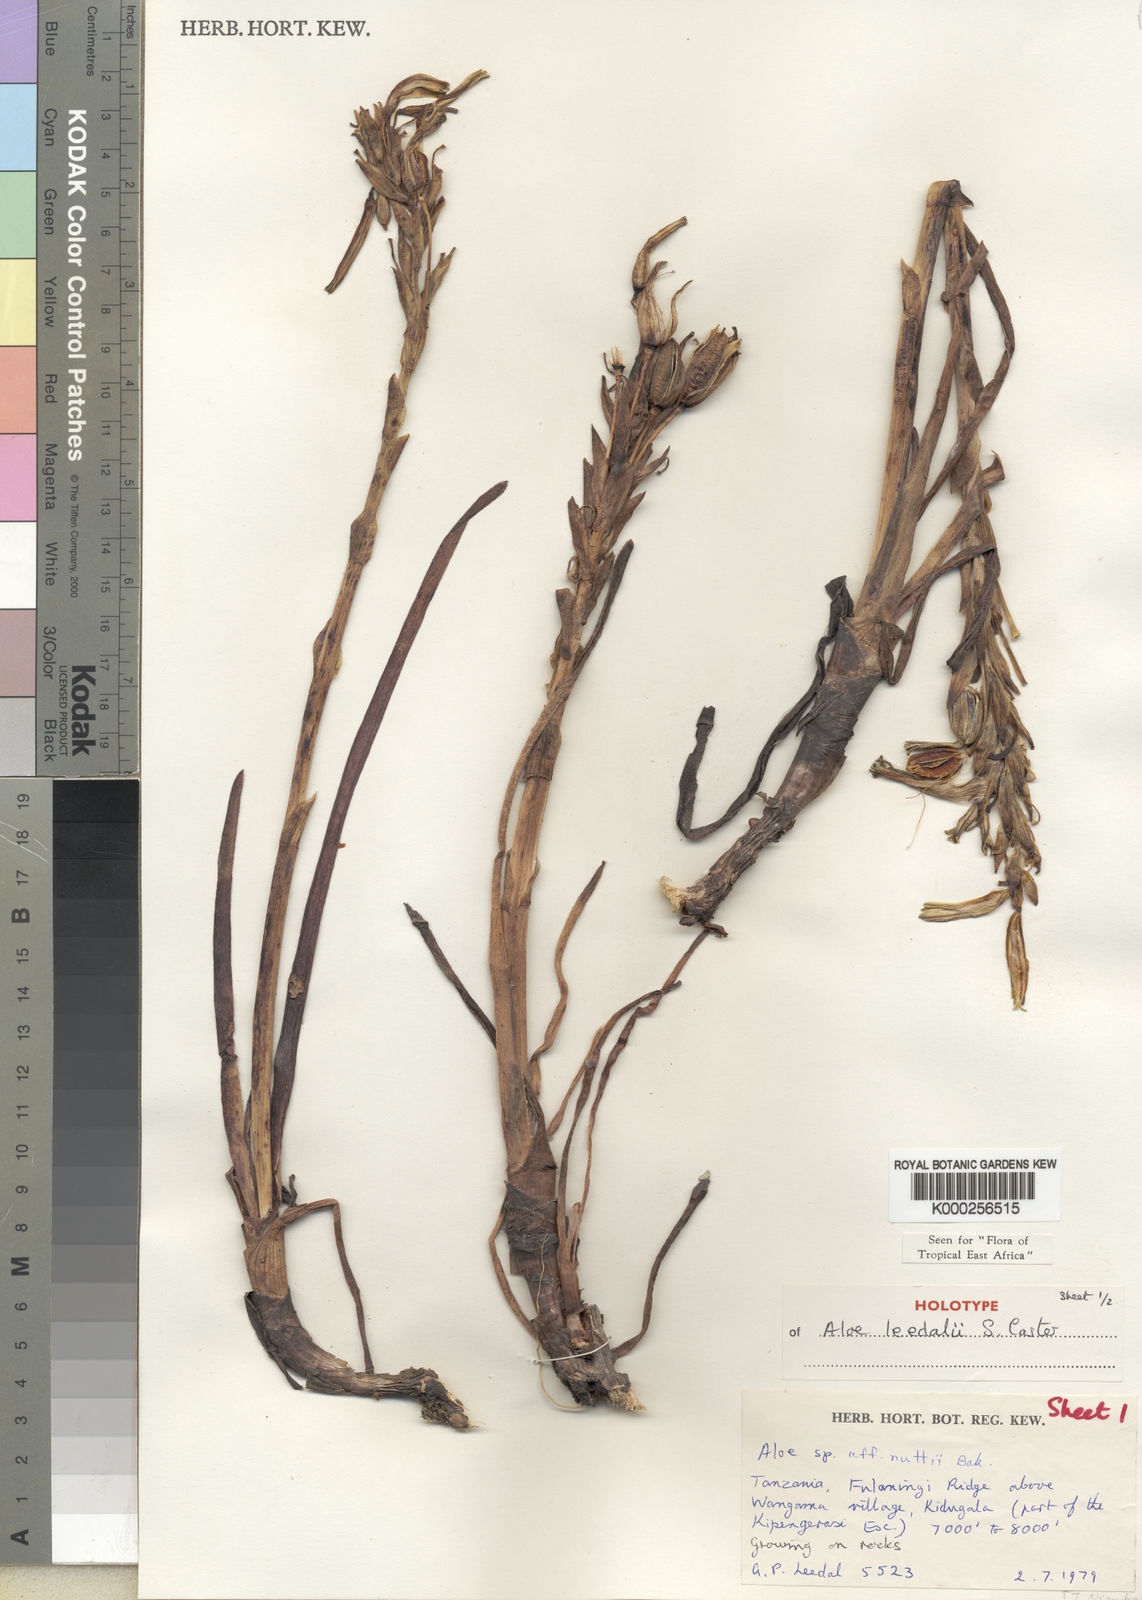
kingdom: Plantae
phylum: Tracheophyta
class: Liliopsida
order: Asparagales
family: Asphodelaceae
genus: Aloe
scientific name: Aloe leedalii
